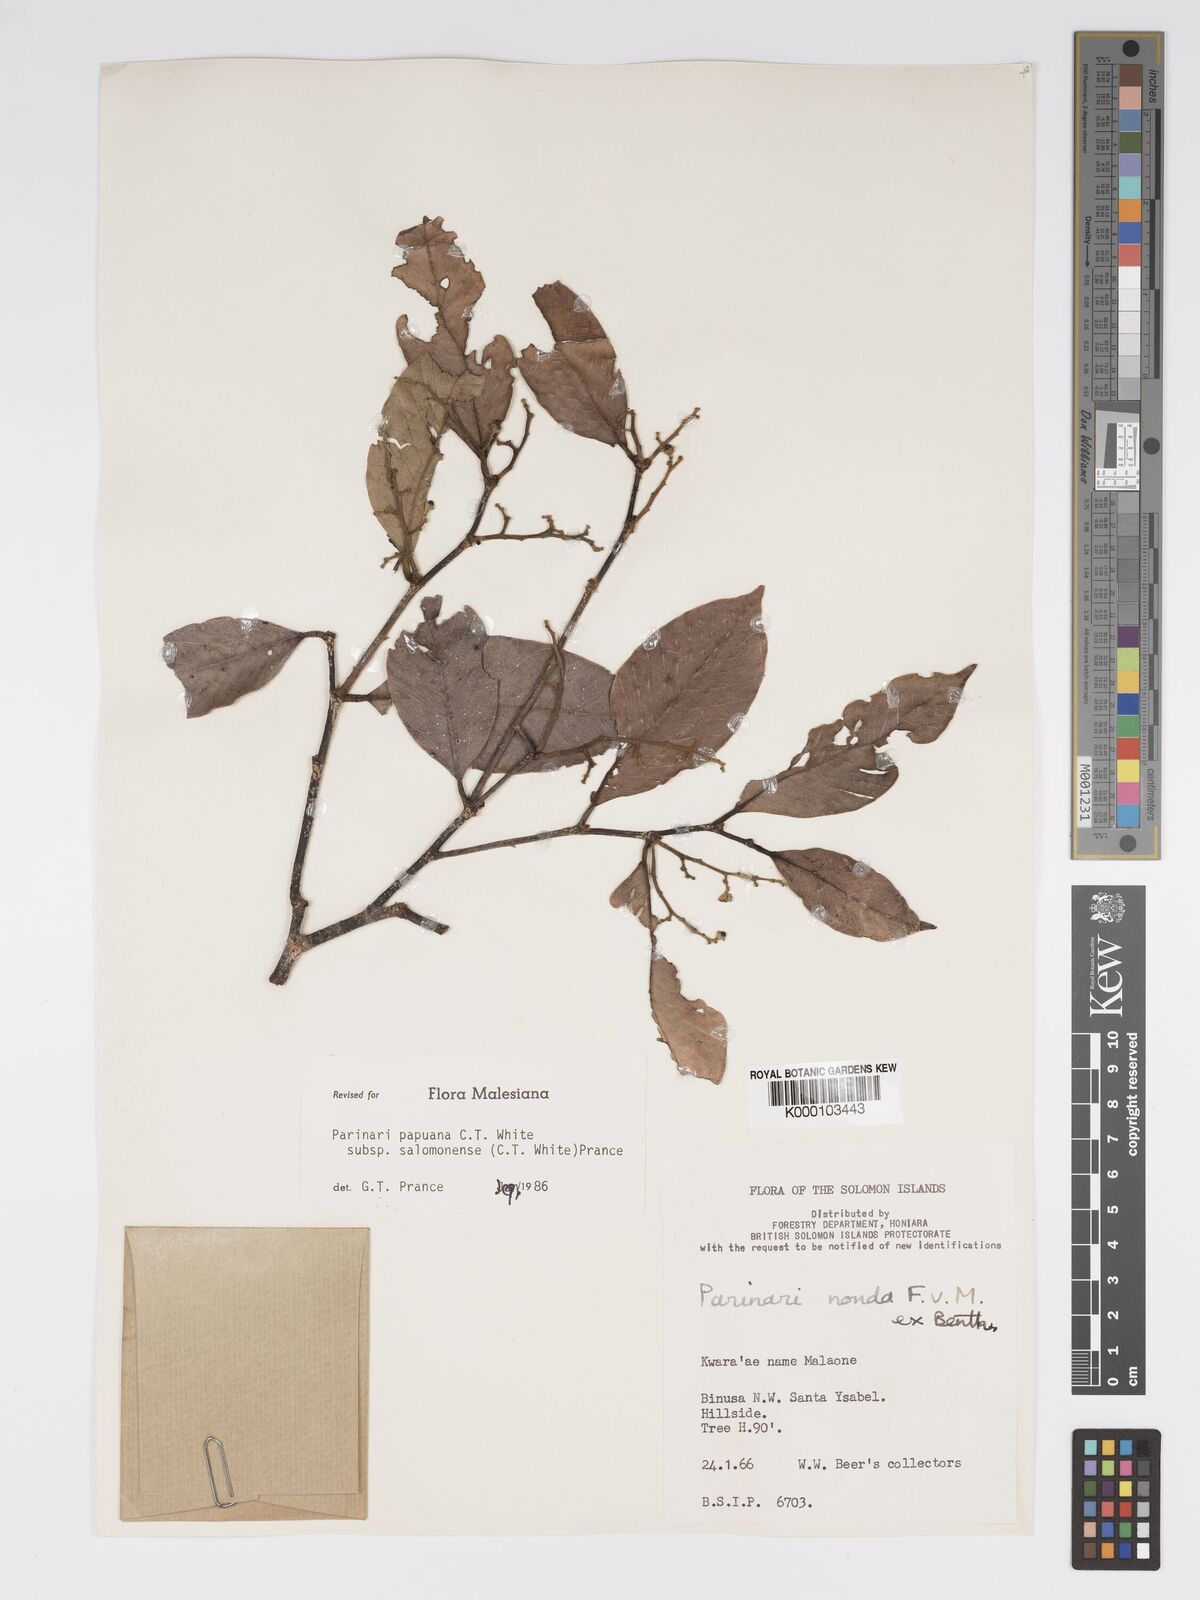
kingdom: Plantae
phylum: Tracheophyta
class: Magnoliopsida
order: Malpighiales
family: Chrysobalanaceae
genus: Parinari
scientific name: Parinari papuana
